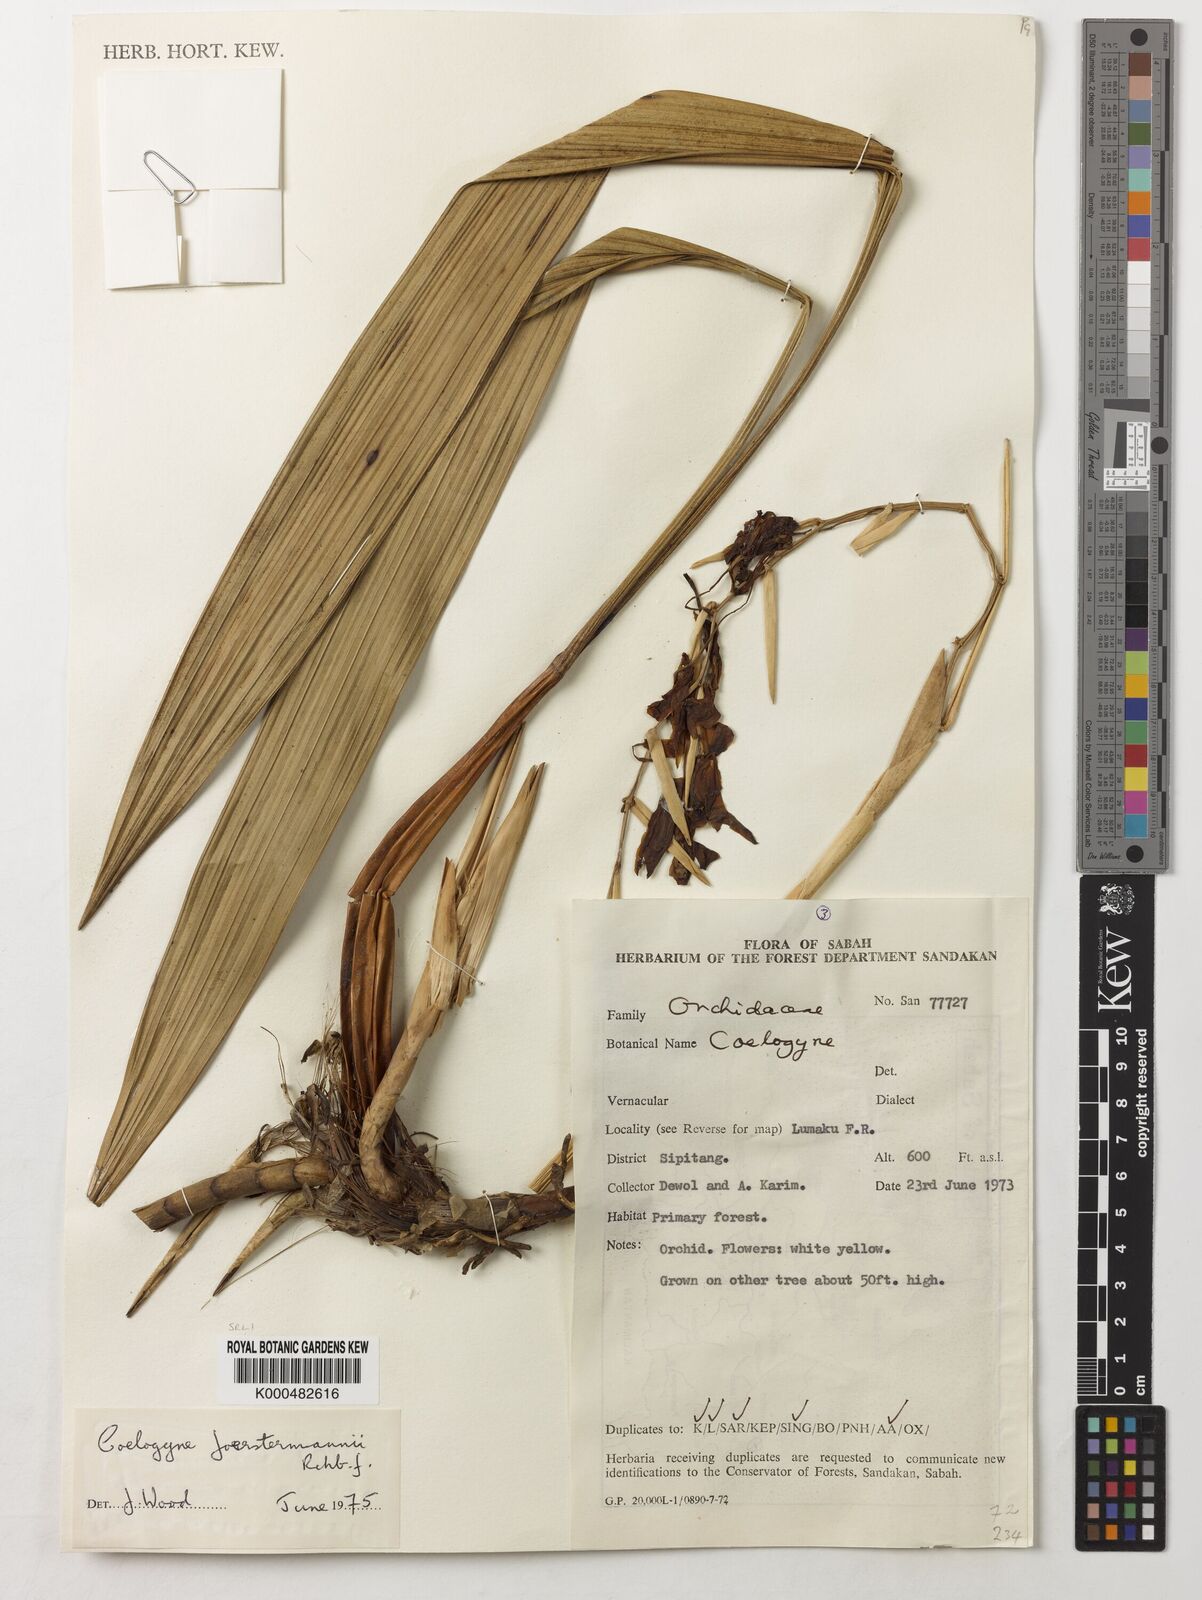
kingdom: Plantae
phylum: Tracheophyta
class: Liliopsida
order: Asparagales
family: Orchidaceae
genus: Coelogyne
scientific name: Coelogyne
